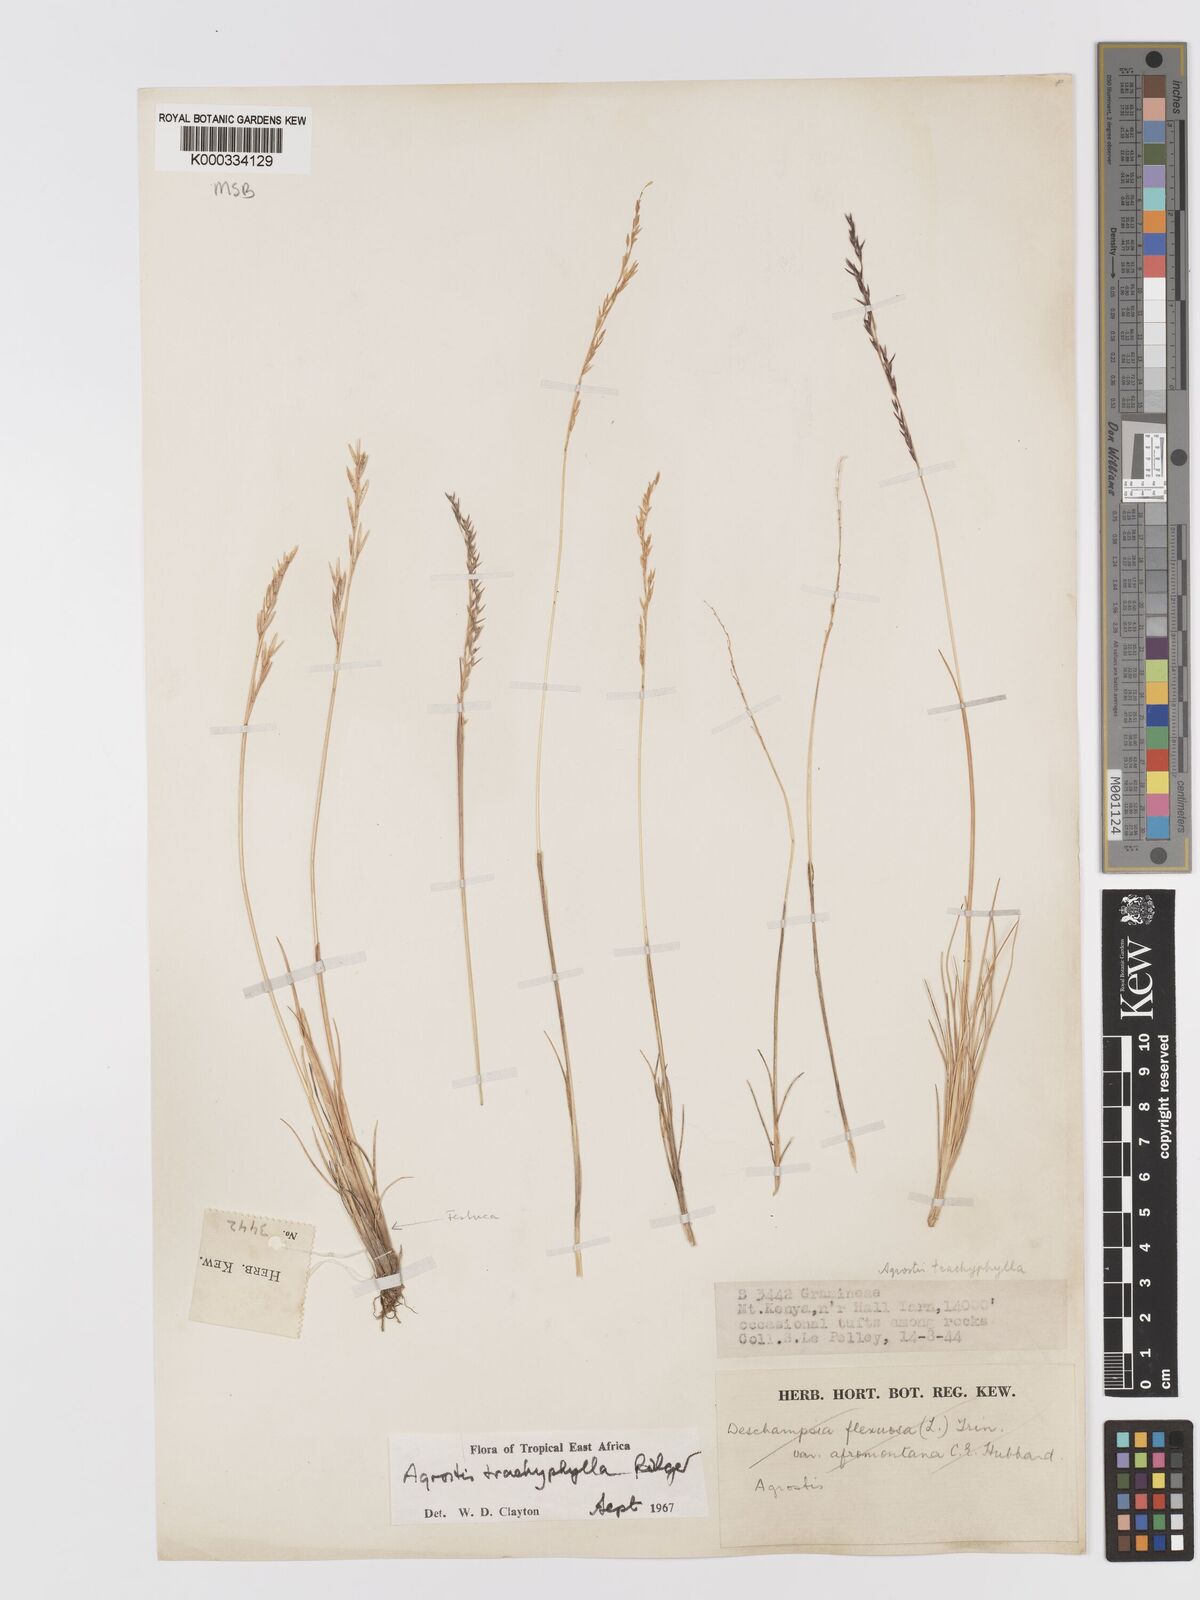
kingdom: Plantae
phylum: Tracheophyta
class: Liliopsida
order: Poales
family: Poaceae
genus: Agrostis
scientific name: Agrostis trachyphylla
